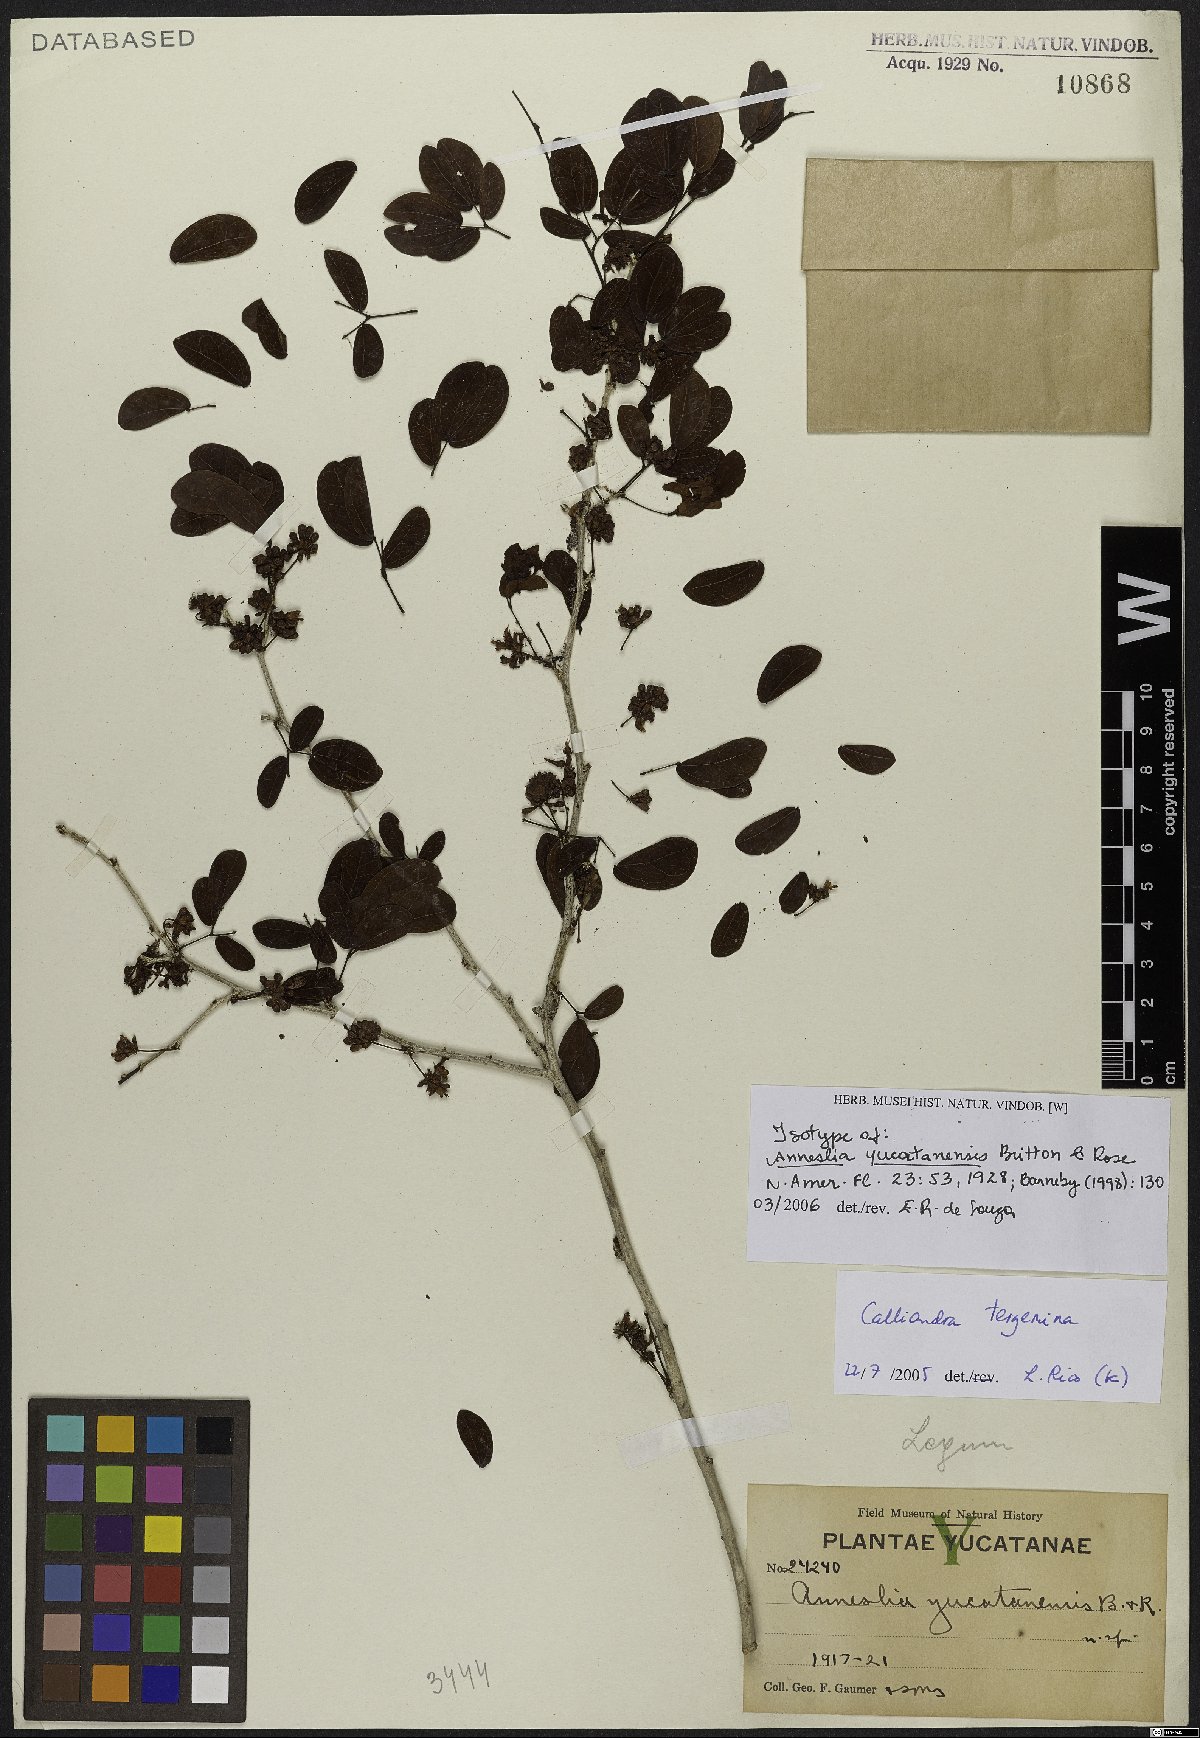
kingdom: Plantae
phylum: Tracheophyta
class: Magnoliopsida
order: Fabales
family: Fabaceae
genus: Calliandra
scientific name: Calliandra tergemina
